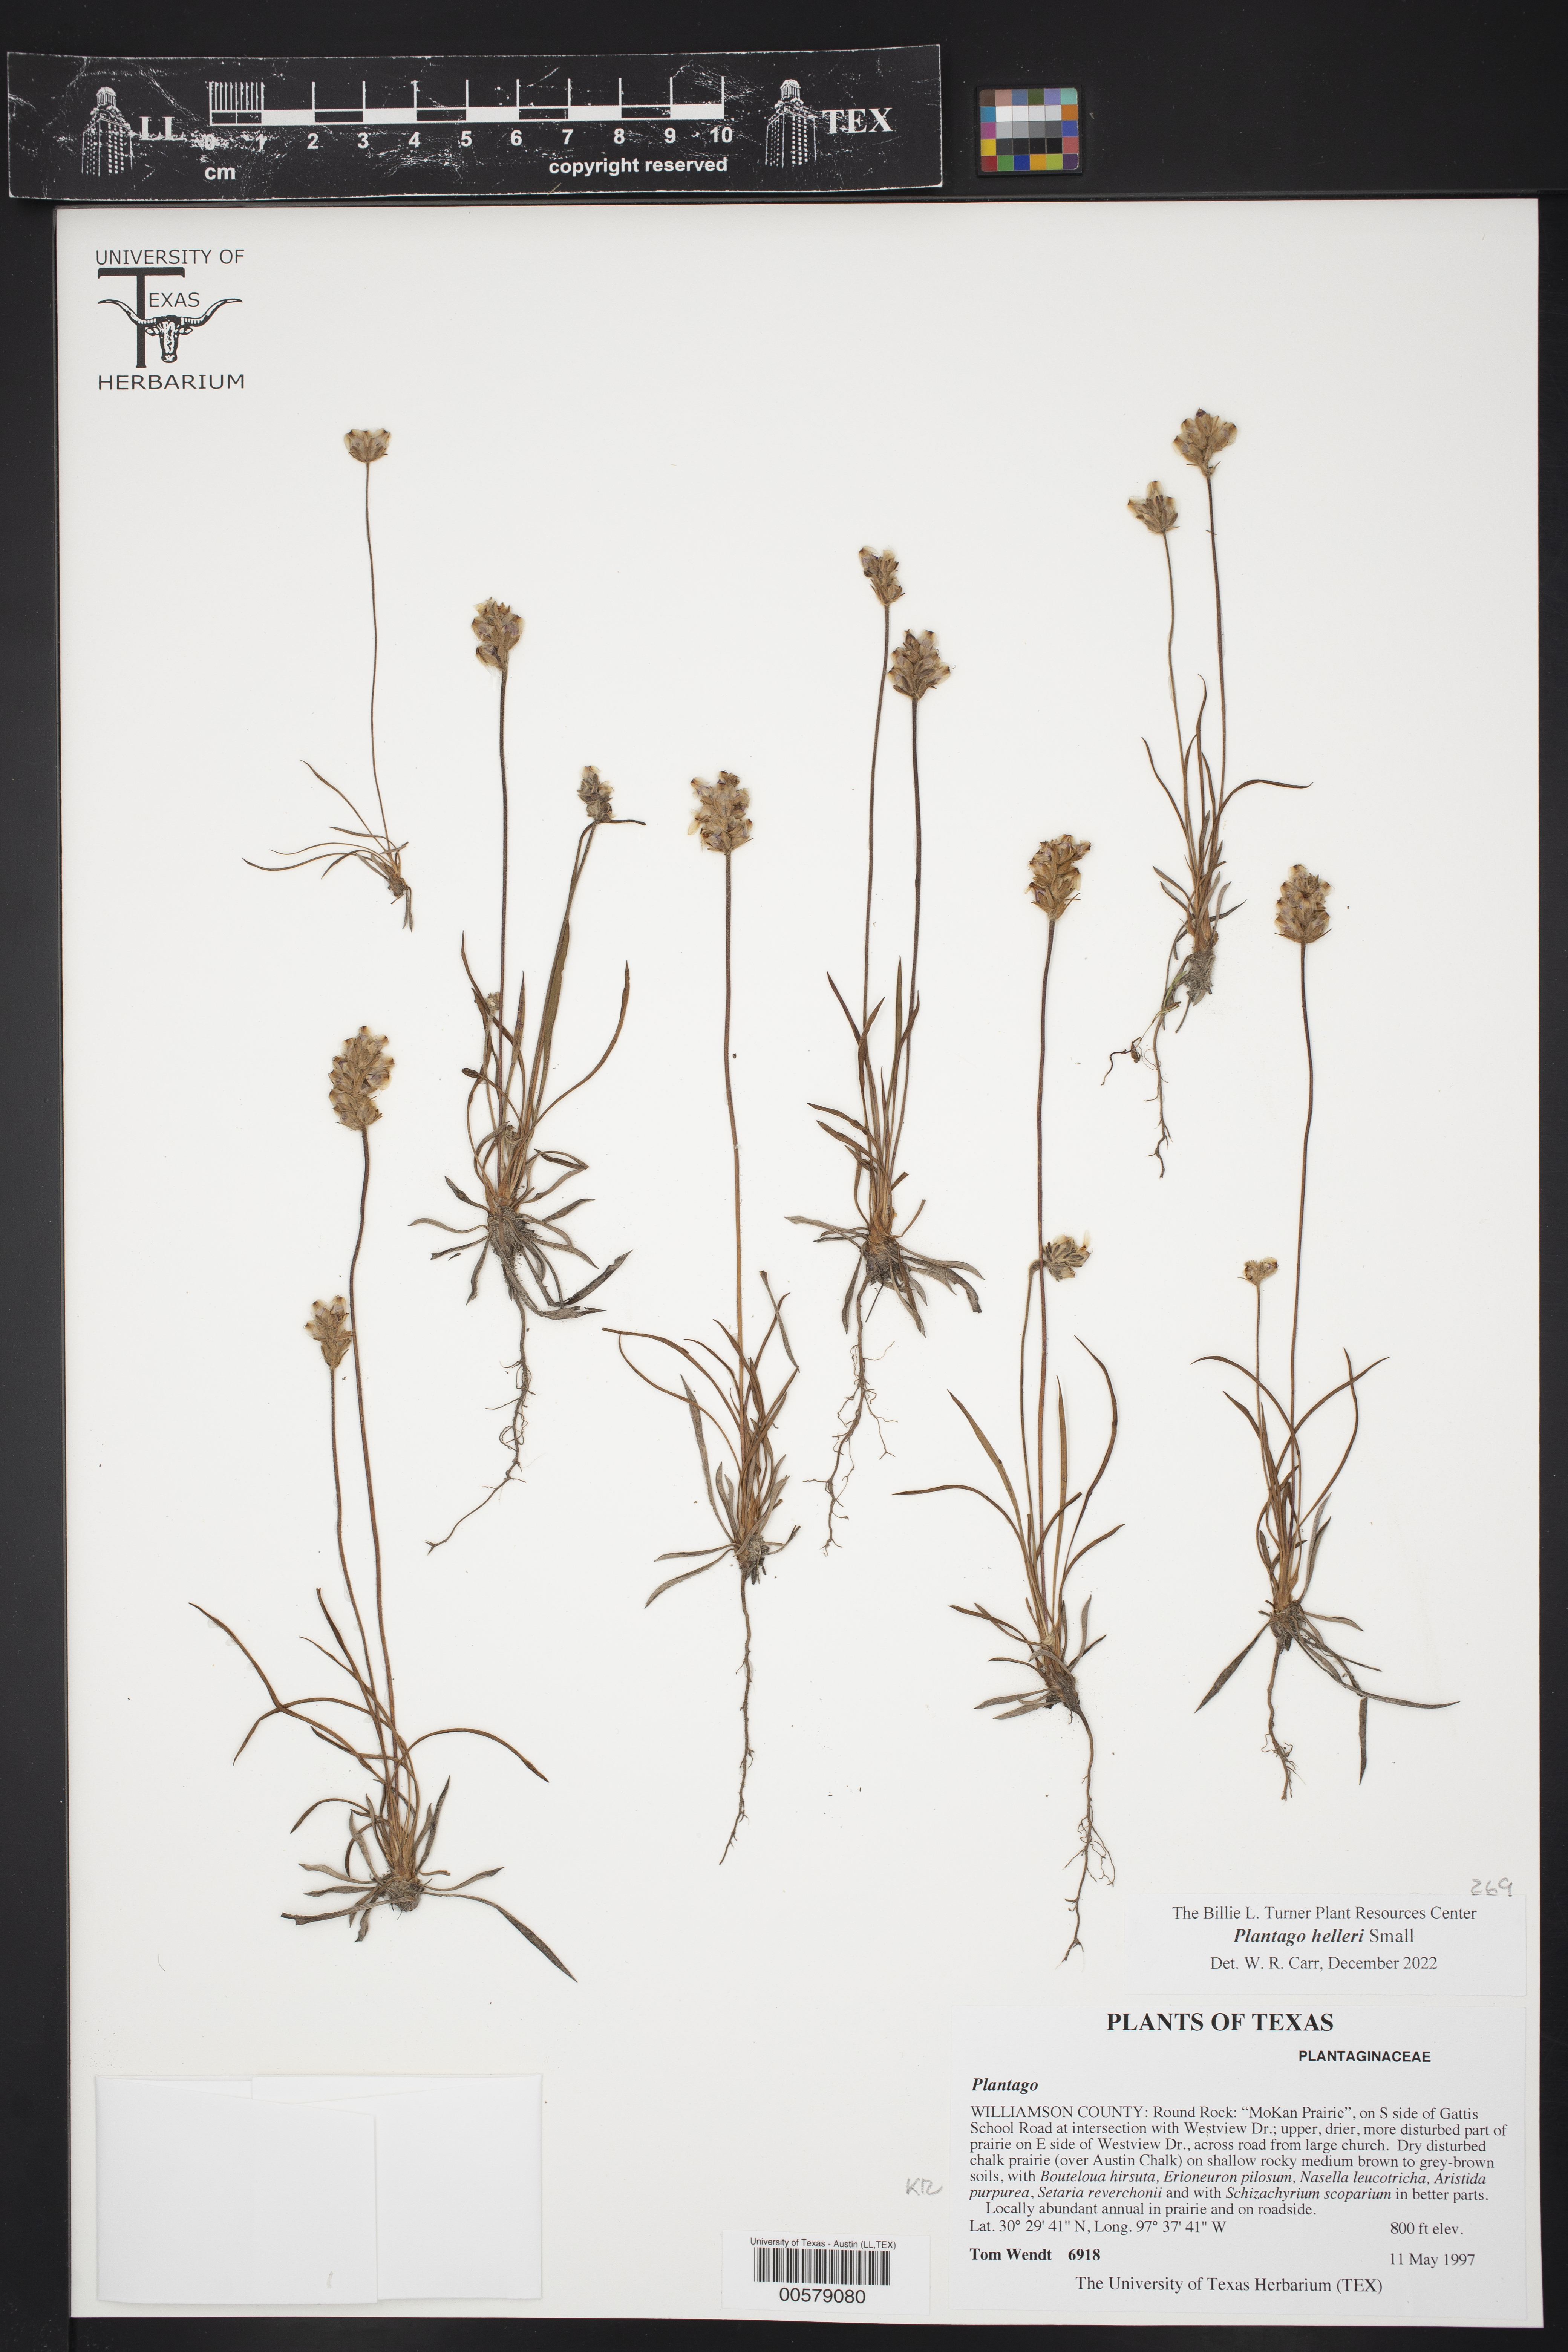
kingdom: Plantae
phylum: Tracheophyta
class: Magnoliopsida
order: Lamiales
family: Plantaginaceae
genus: Plantago
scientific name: Plantago helleri
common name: Heller's plantain
